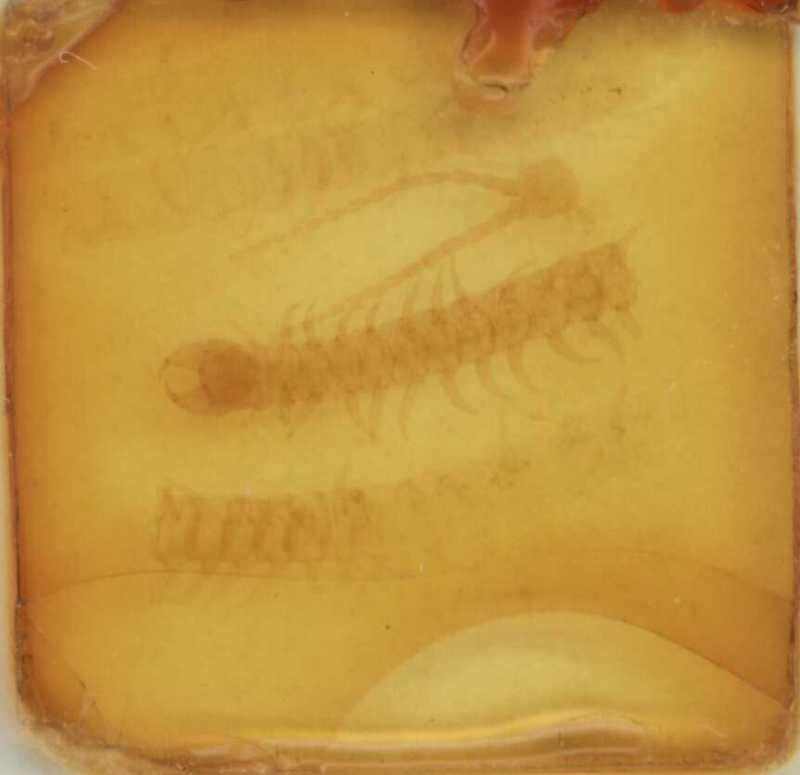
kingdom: Animalia
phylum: Arthropoda
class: Chilopoda
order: Geophilomorpha
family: Geophilidae
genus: Geophilus
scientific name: Geophilus insculptus
